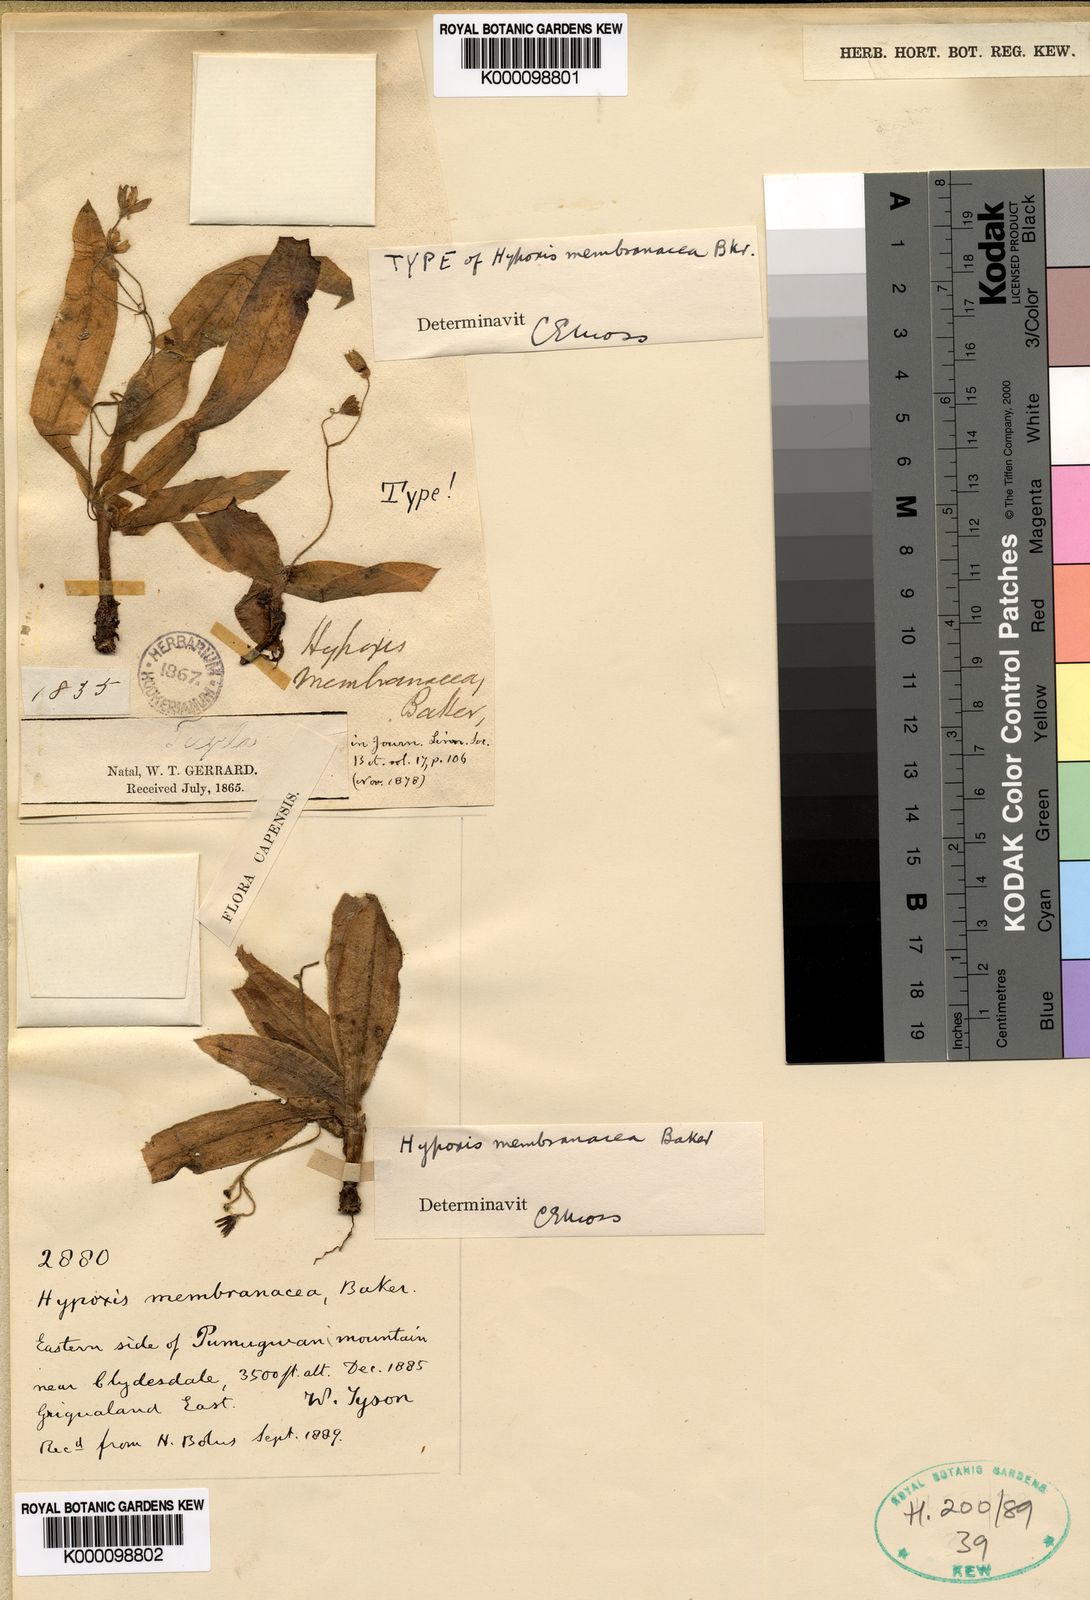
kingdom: Plantae
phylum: Tracheophyta
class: Liliopsida
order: Asparagales
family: Hypoxidaceae
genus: Hypoxis
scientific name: Hypoxis membranacea
